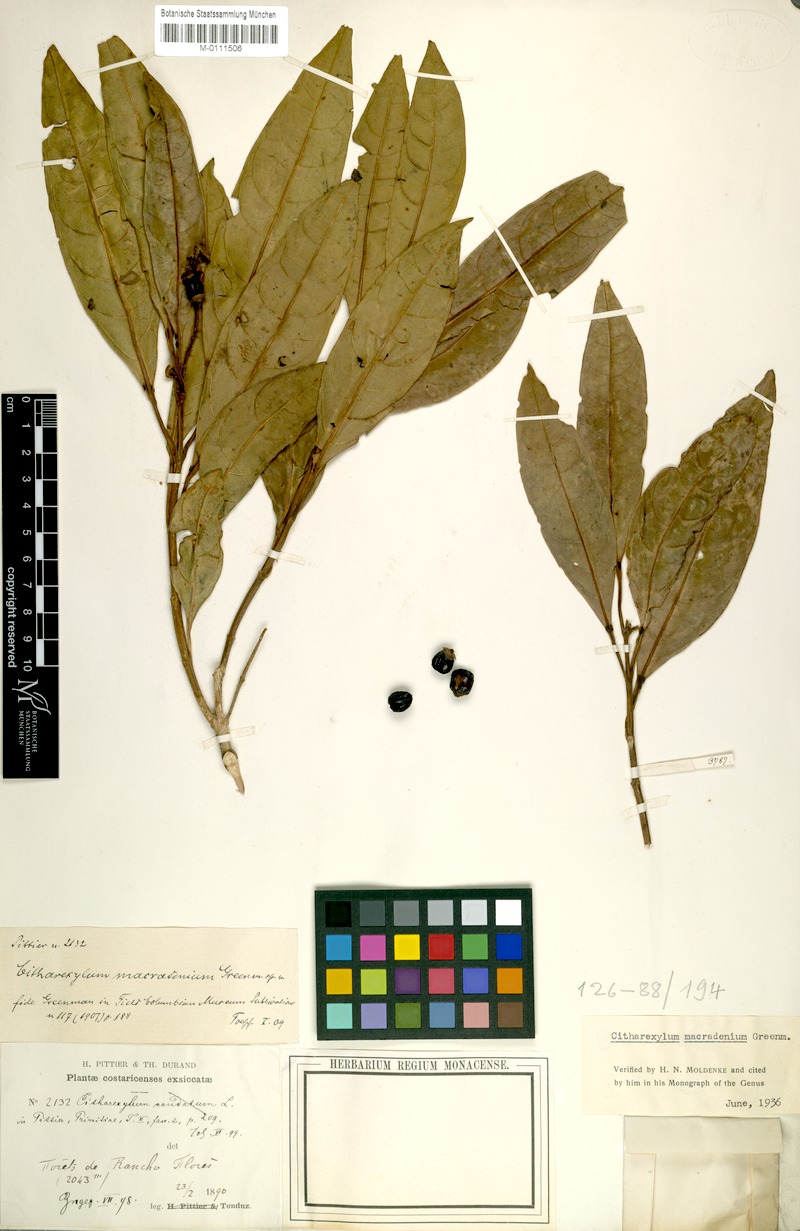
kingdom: Plantae
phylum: Tracheophyta
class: Magnoliopsida
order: Lamiales
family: Verbenaceae
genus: Citharexylum
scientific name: Citharexylum macradenium
